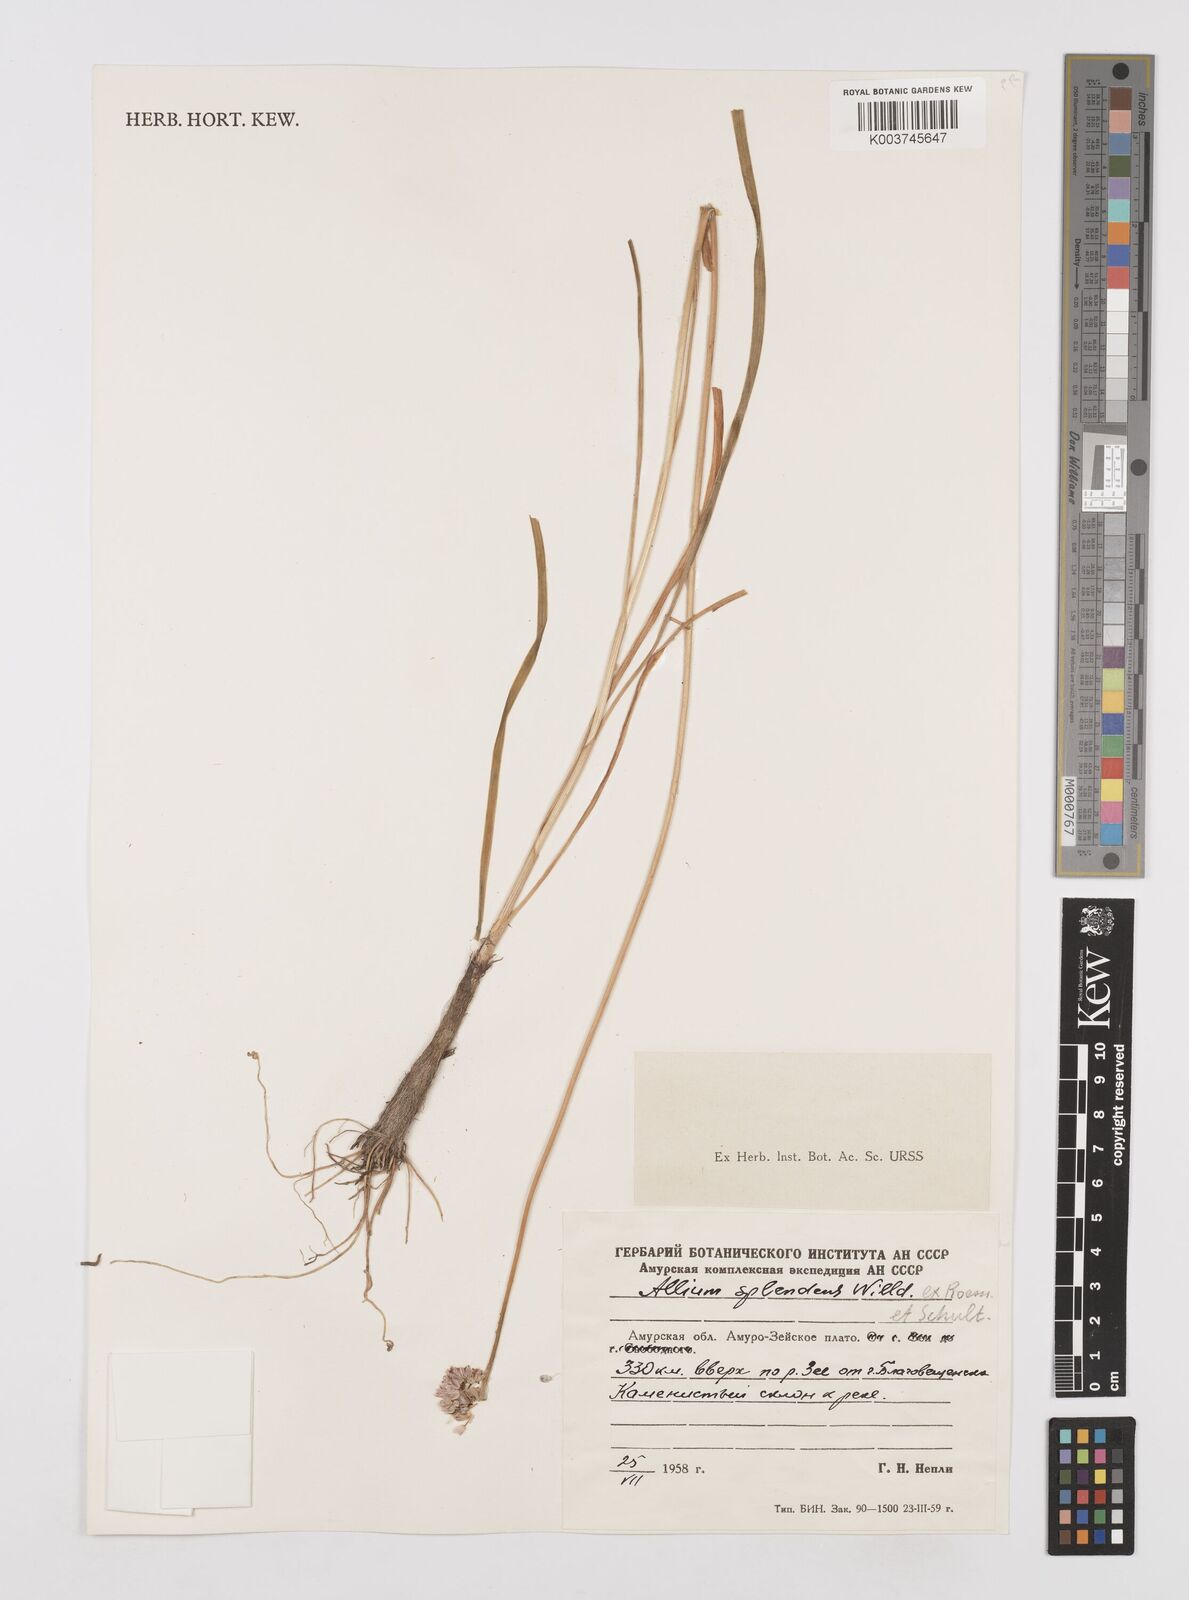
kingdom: Plantae
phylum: Tracheophyta
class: Liliopsida
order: Asparagales
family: Amaryllidaceae
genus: Allium
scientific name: Allium chinense
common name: Japanese scallion
